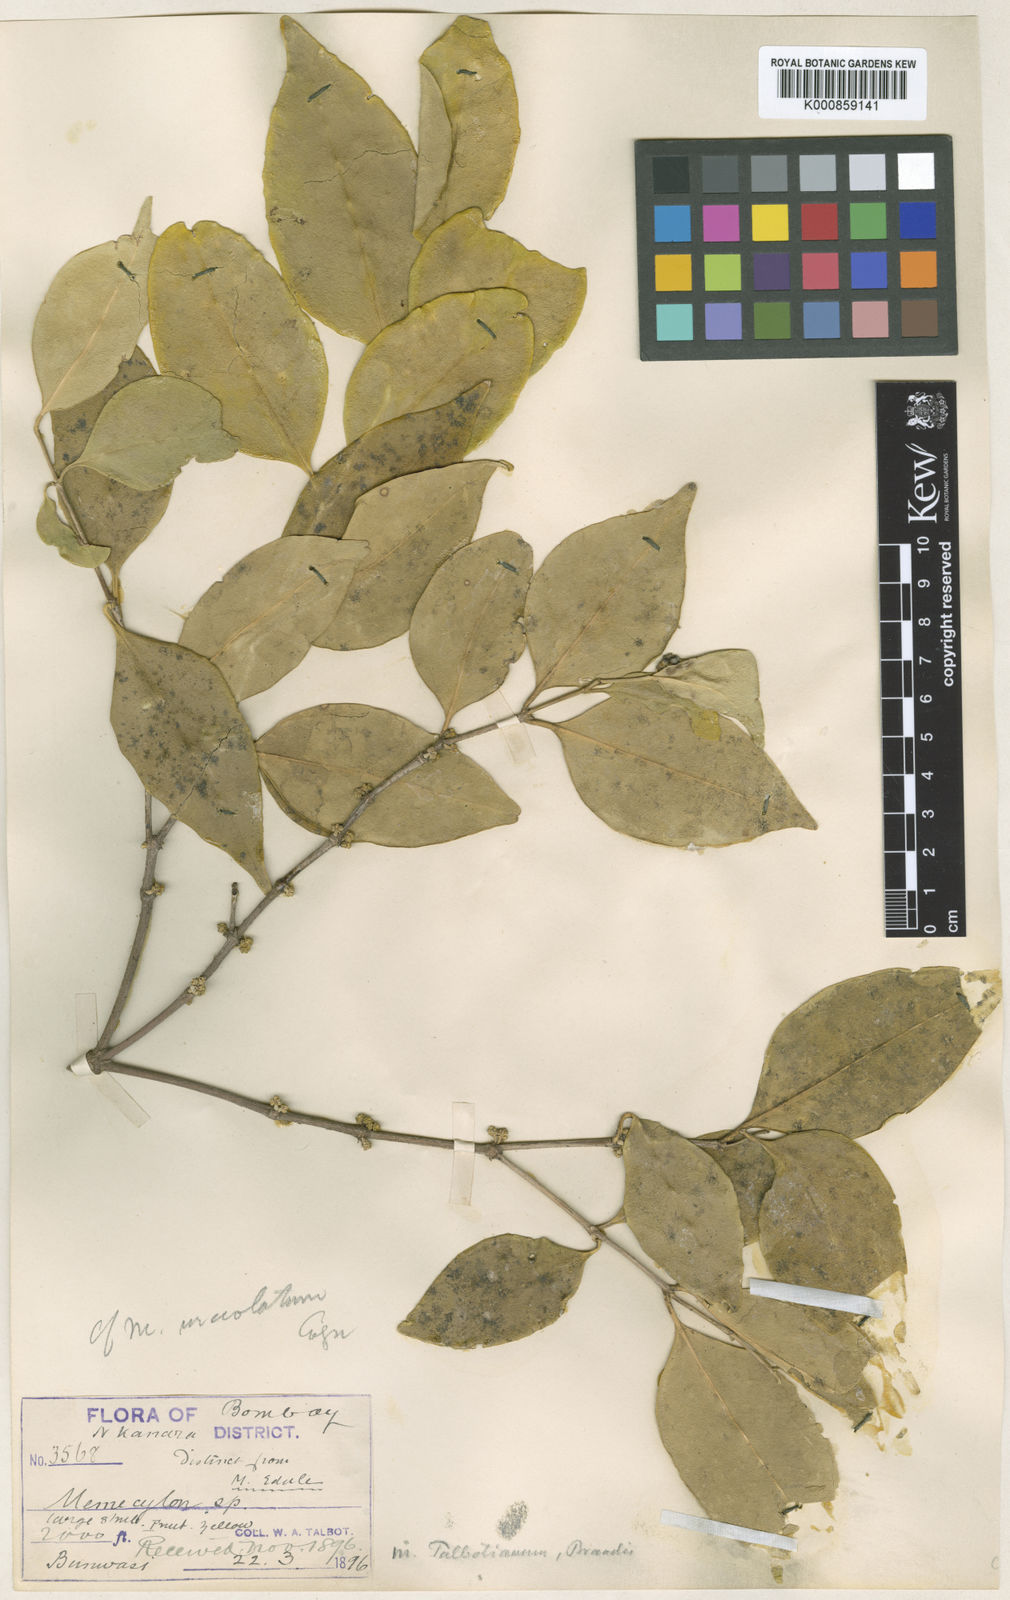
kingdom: Plantae
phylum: Tracheophyta
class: Magnoliopsida
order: Myrtales
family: Melastomataceae
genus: Memecylon
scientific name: Memecylon talbotianum
